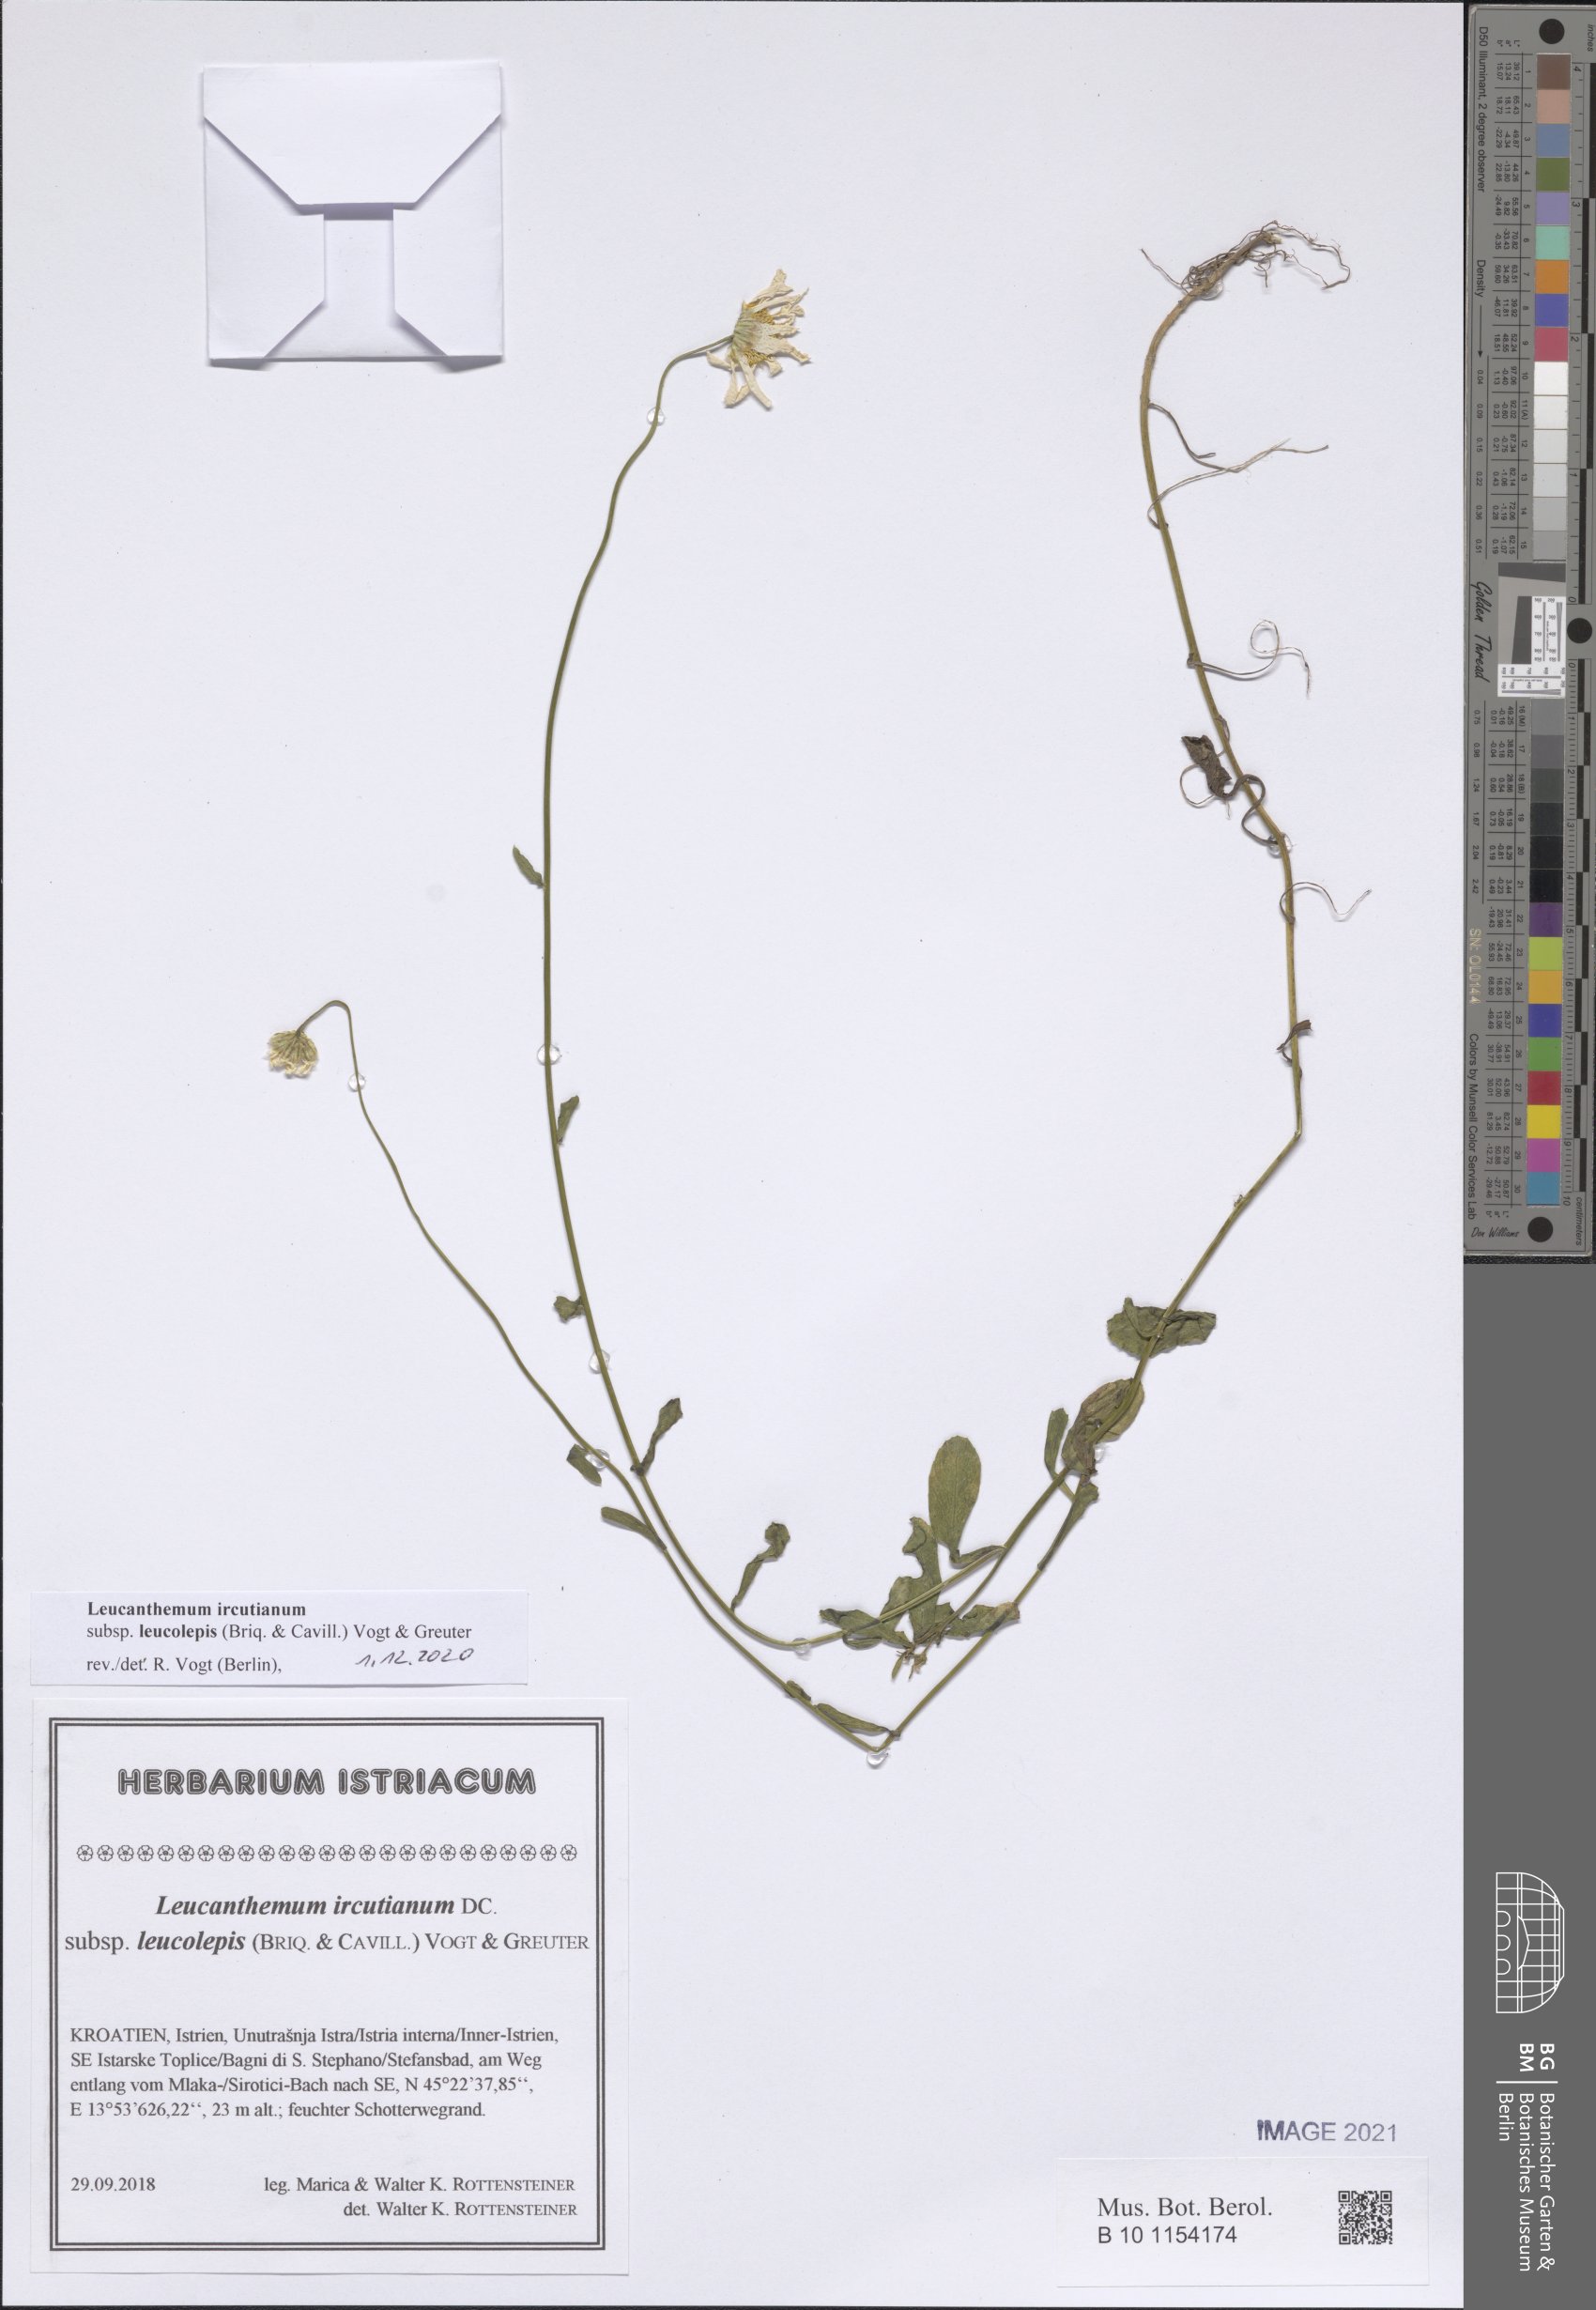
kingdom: Plantae
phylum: Tracheophyta
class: Magnoliopsida
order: Asterales
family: Asteraceae
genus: Leucanthemum
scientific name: Leucanthemum ircutianum
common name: Daisy
